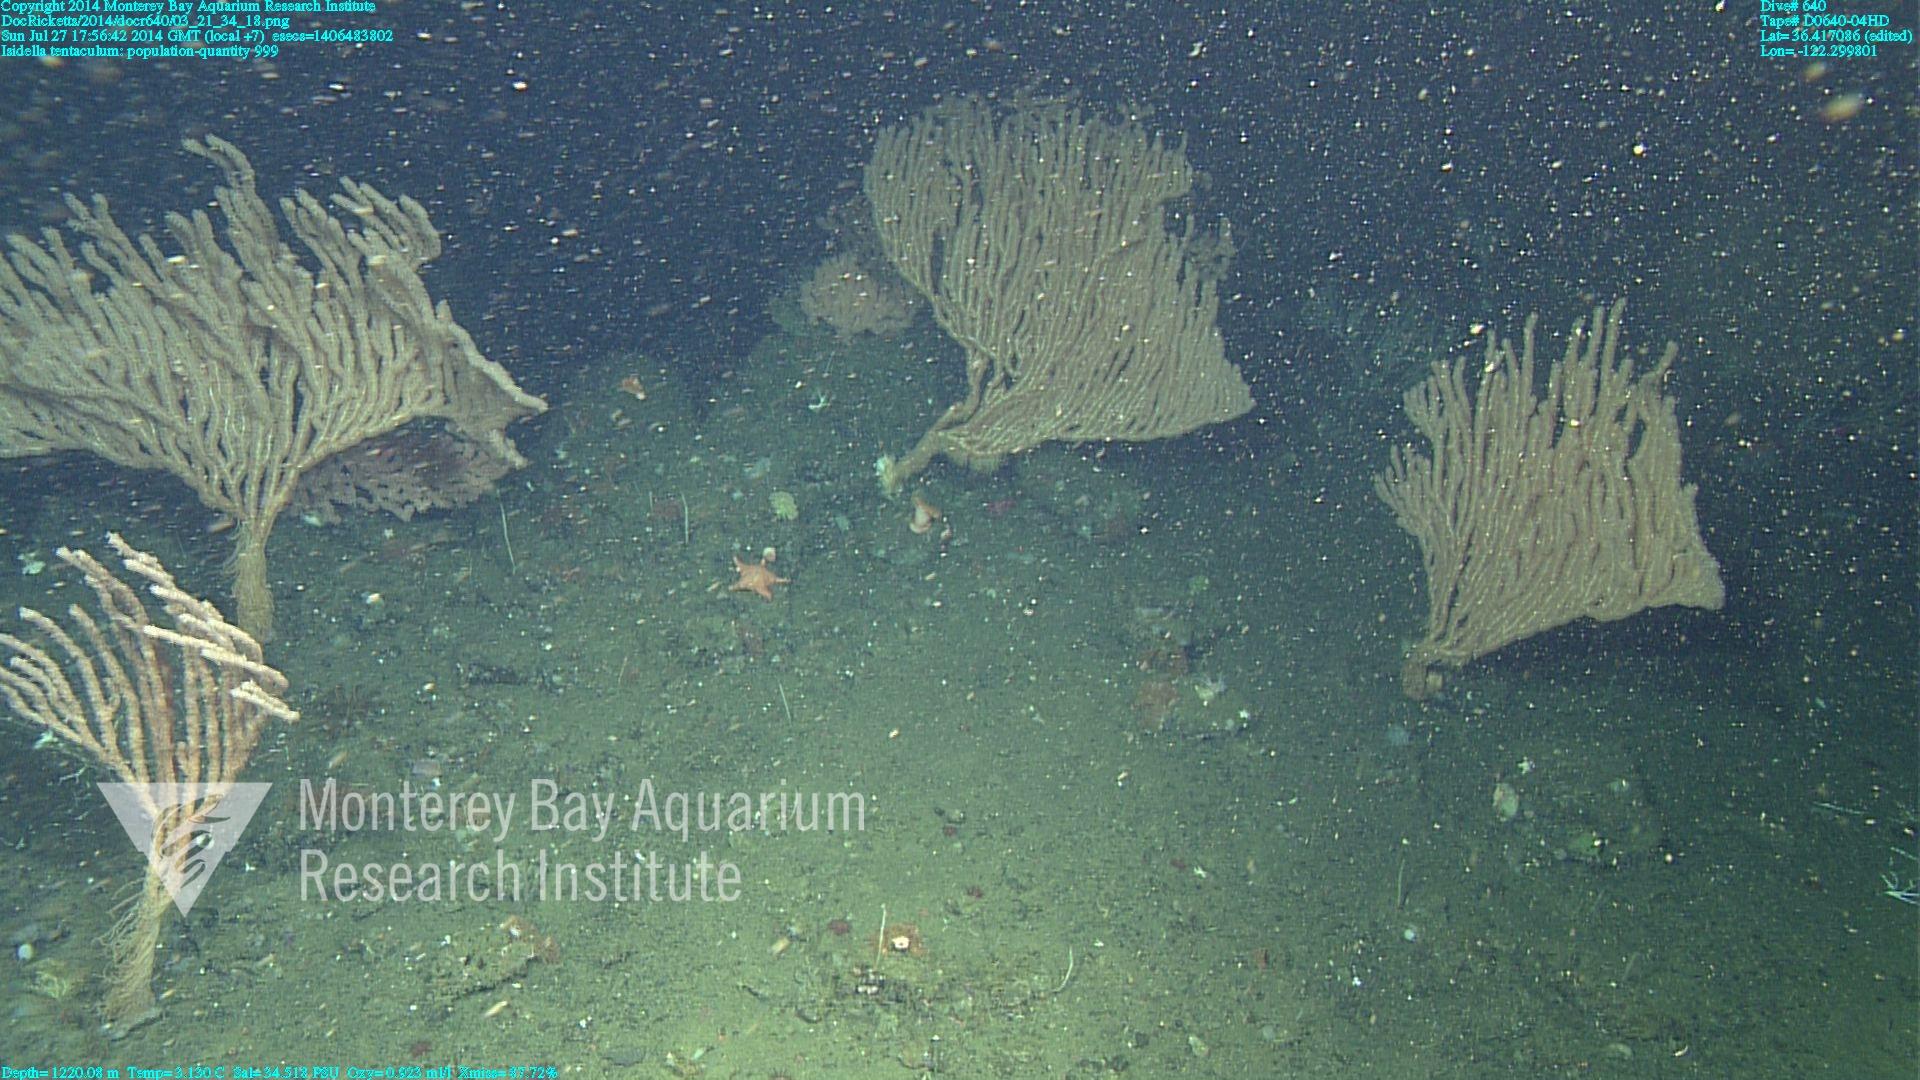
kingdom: Animalia
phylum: Cnidaria
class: Anthozoa
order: Scleralcyonacea
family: Keratoisididae
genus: Isidella
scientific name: Isidella tentaculum
